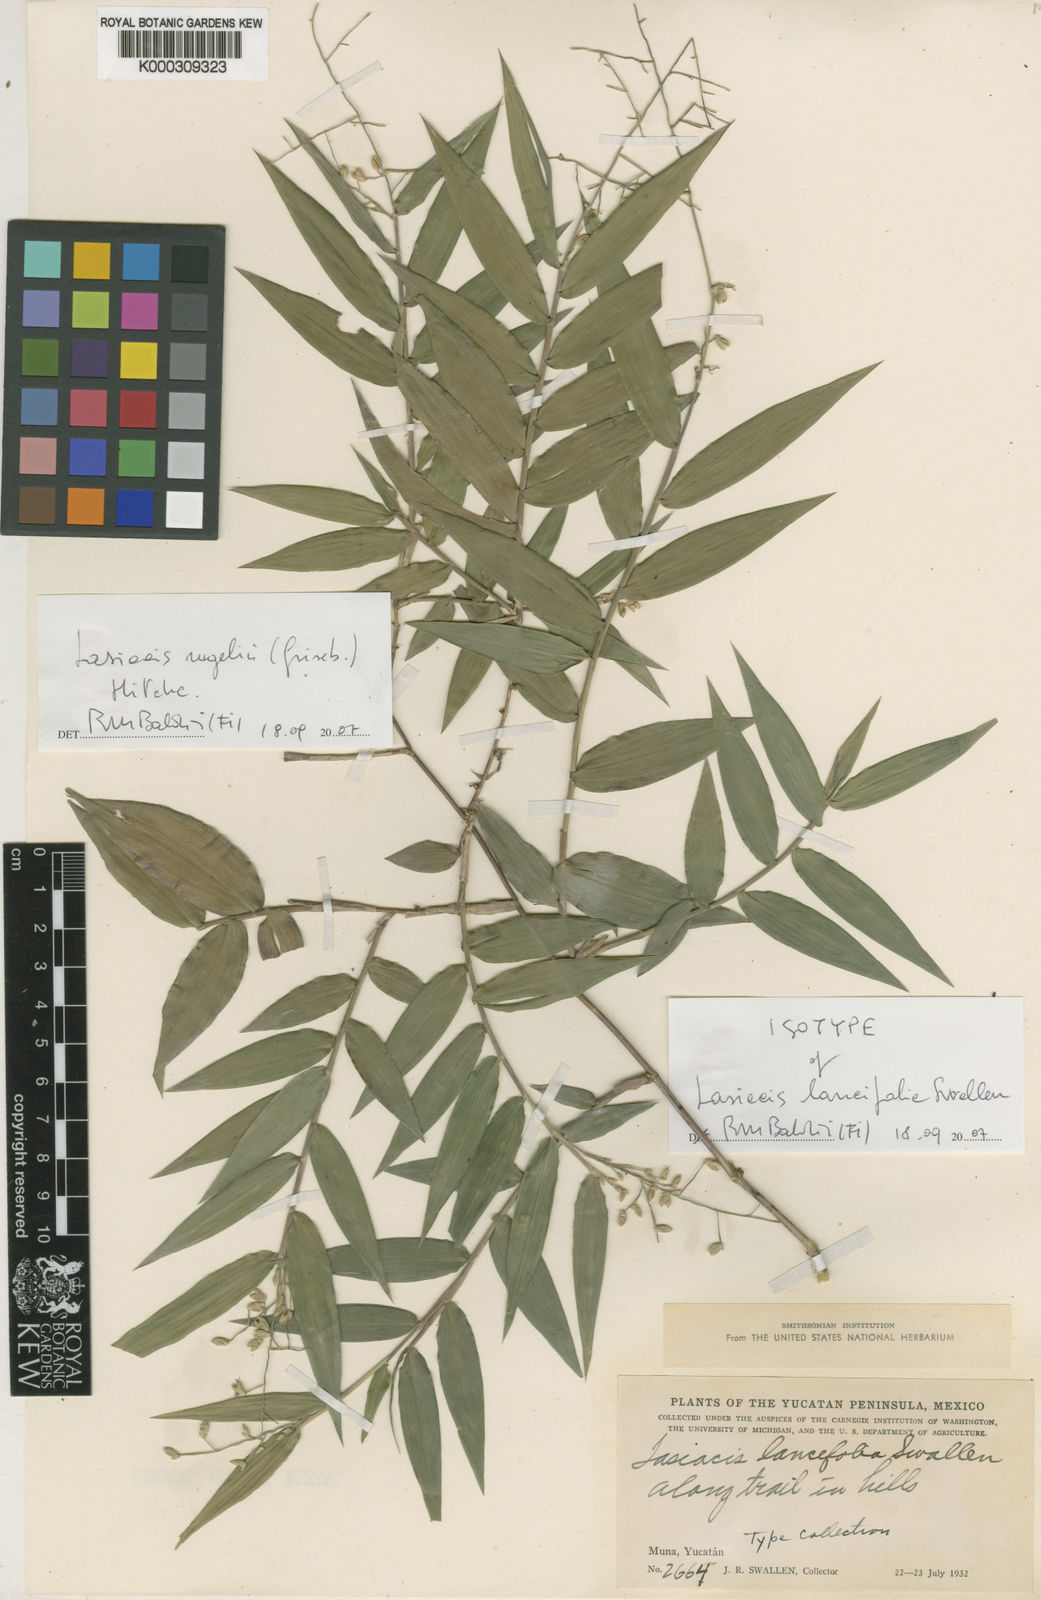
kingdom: Plantae
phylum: Tracheophyta
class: Liliopsida
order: Poales
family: Poaceae
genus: Lasiacis
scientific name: Lasiacis rugelii
